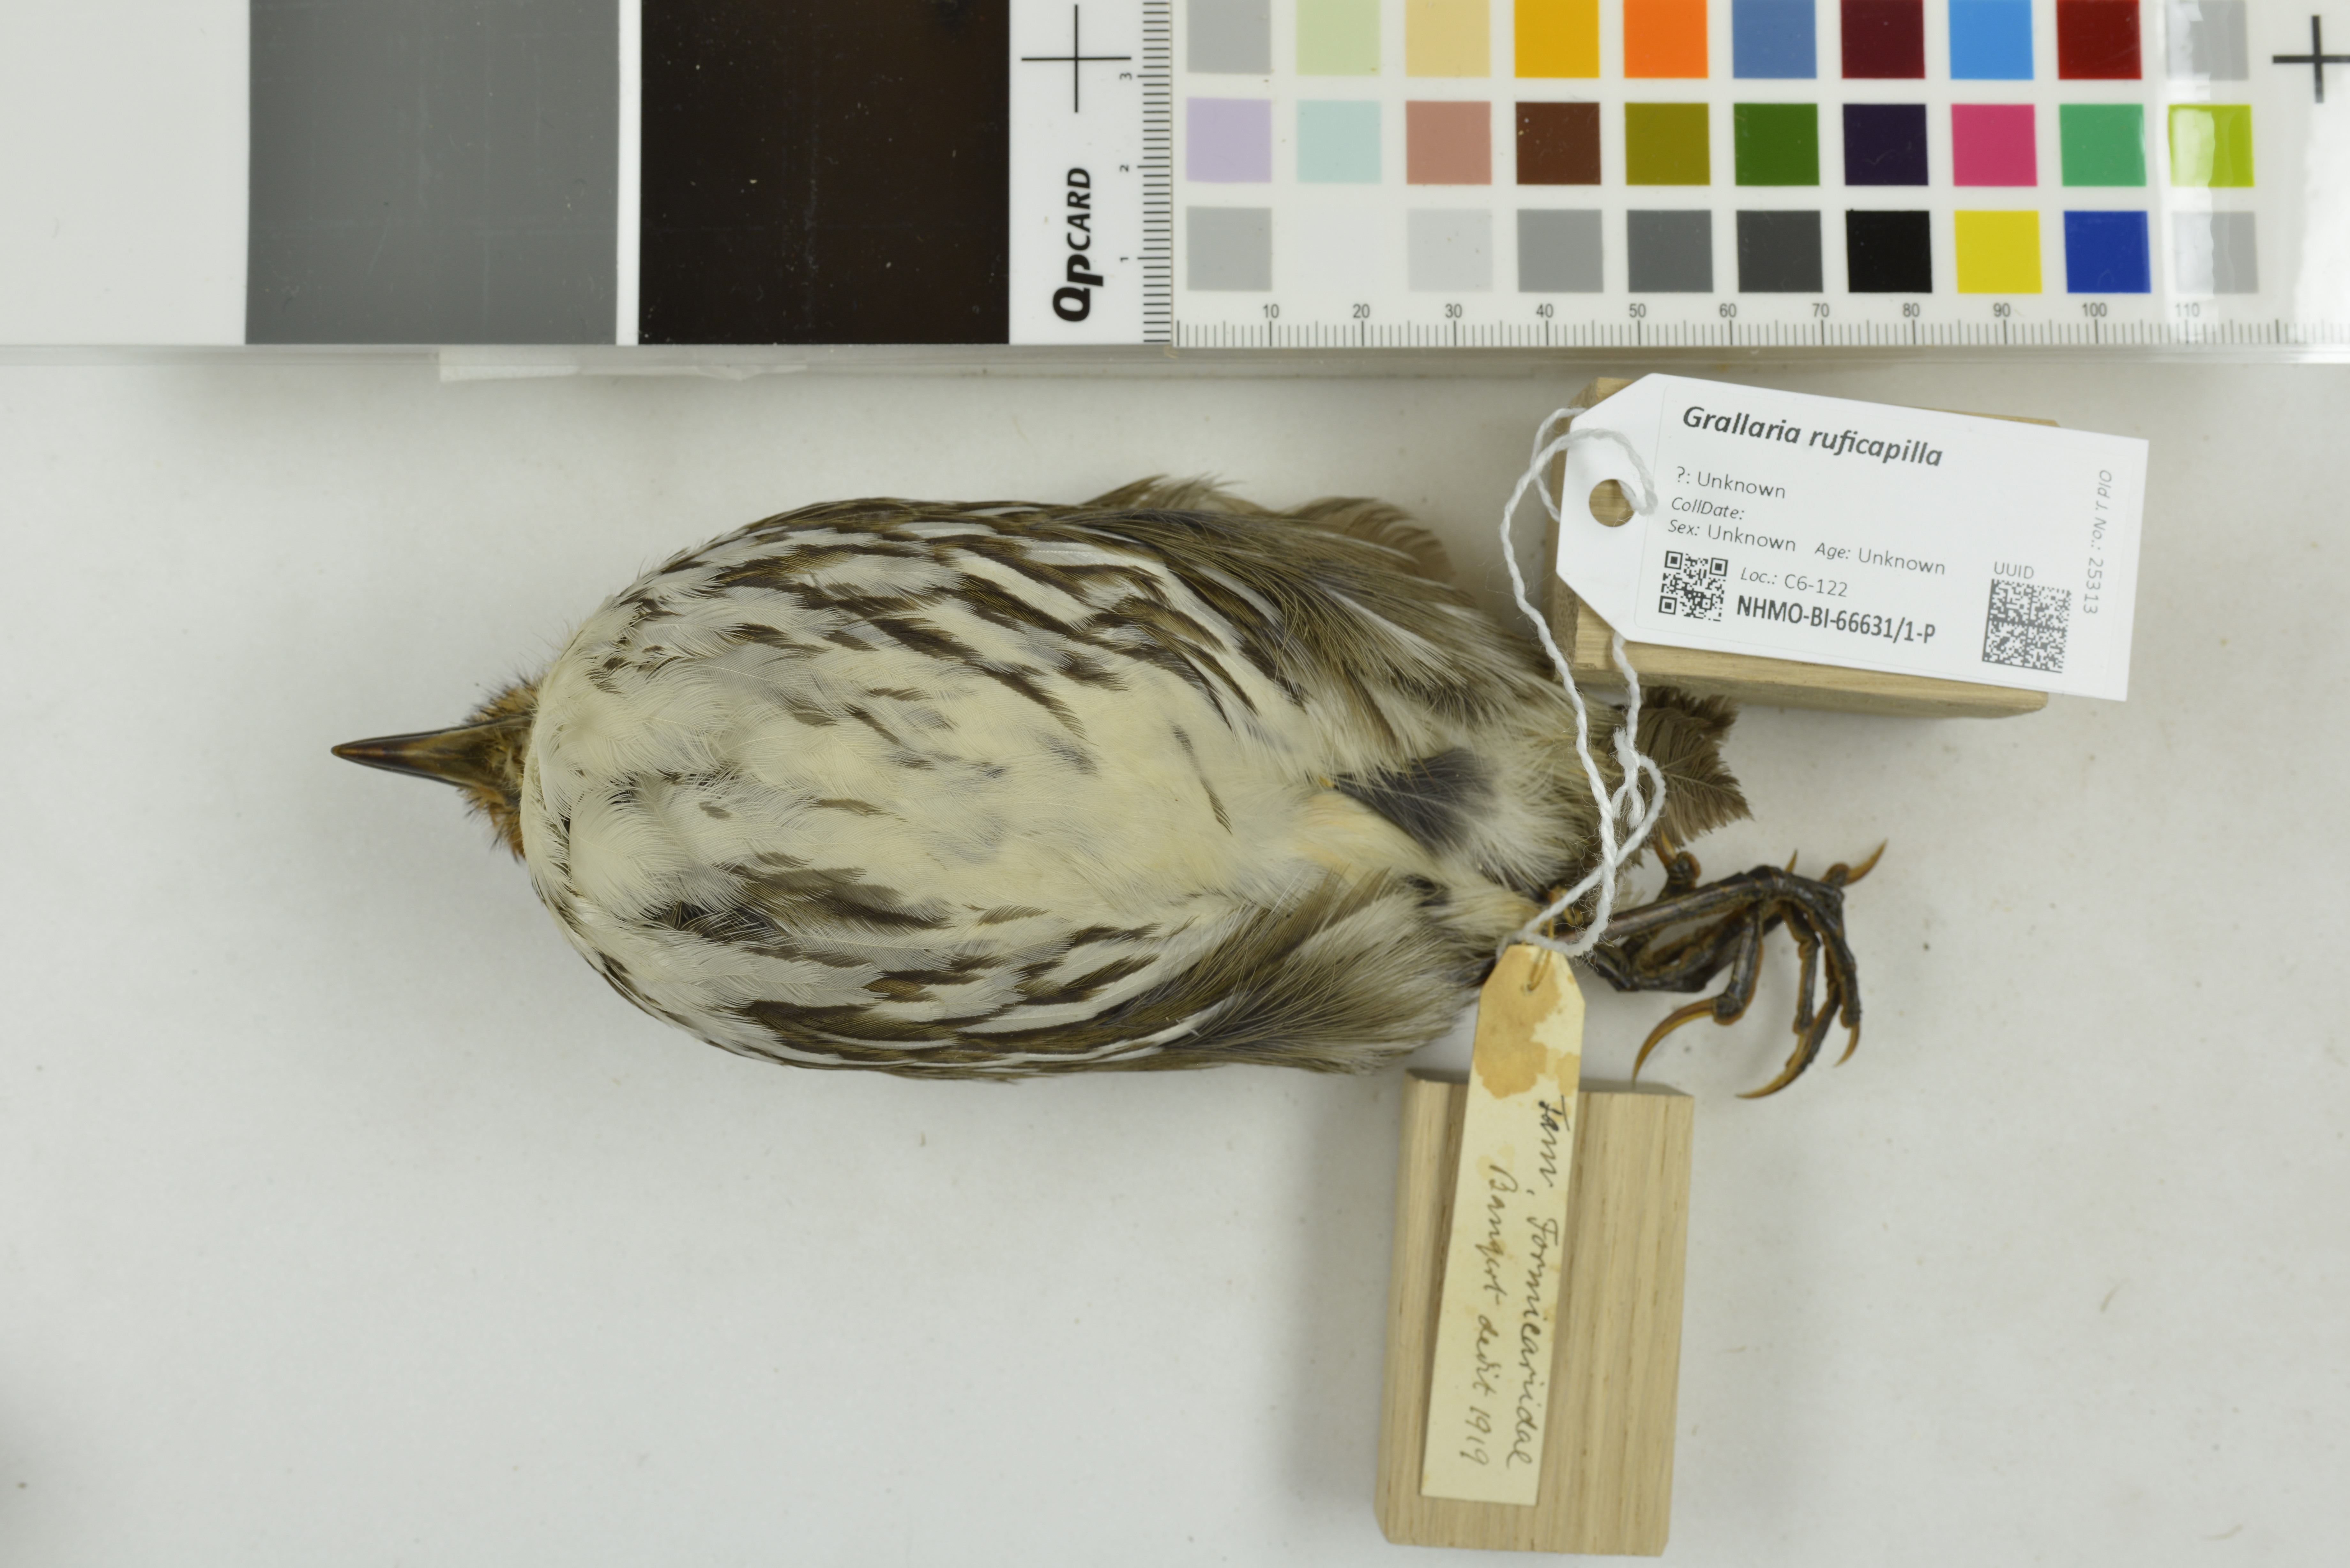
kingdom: Animalia
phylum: Chordata
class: Aves
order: Passeriformes
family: Grallariidae
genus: Grallaria
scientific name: Grallaria ruficapilla
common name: Chestnut-crowned antpitta
